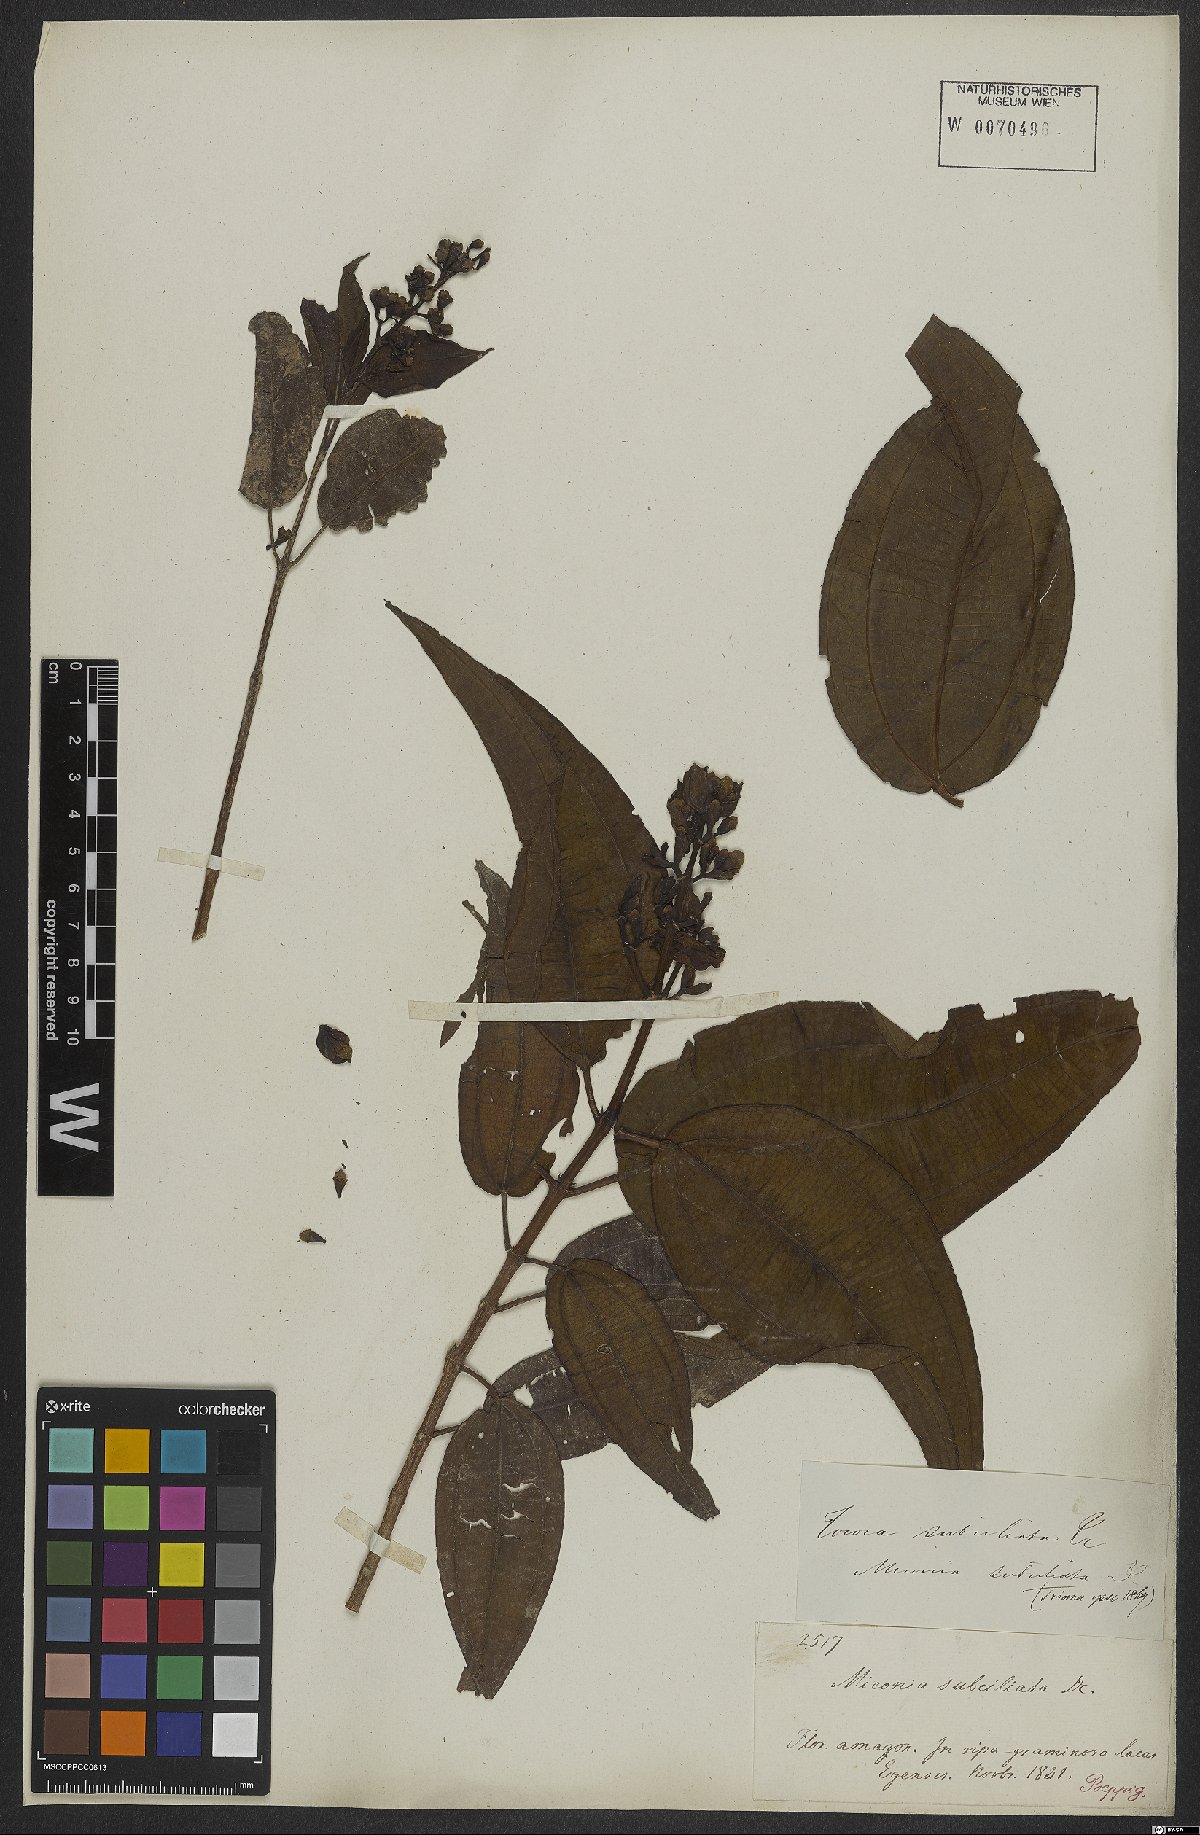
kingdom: Plantae
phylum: Tracheophyta
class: Magnoliopsida
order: Myrtales
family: Melastomataceae
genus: Miconia
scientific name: Miconia subciliata
